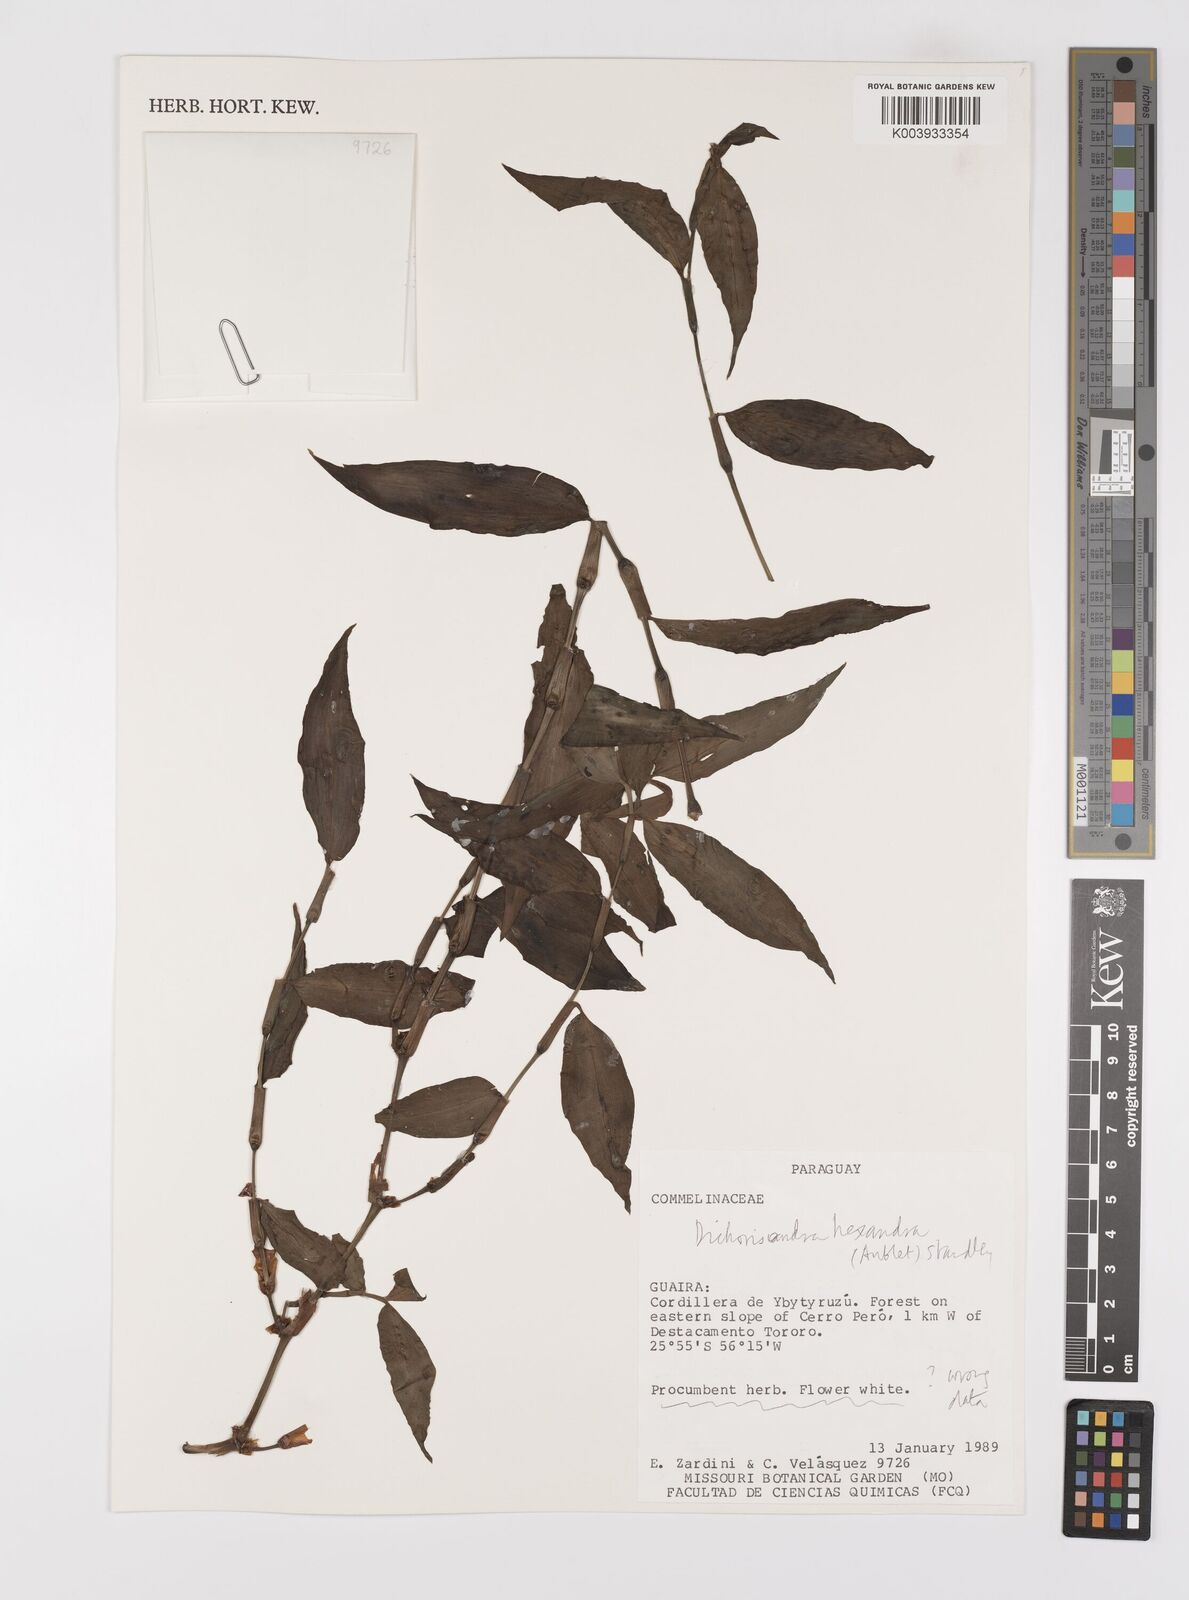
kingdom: Plantae
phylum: Tracheophyta
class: Liliopsida
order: Commelinales
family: Commelinaceae
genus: Dichorisandra
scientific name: Dichorisandra hexandra
